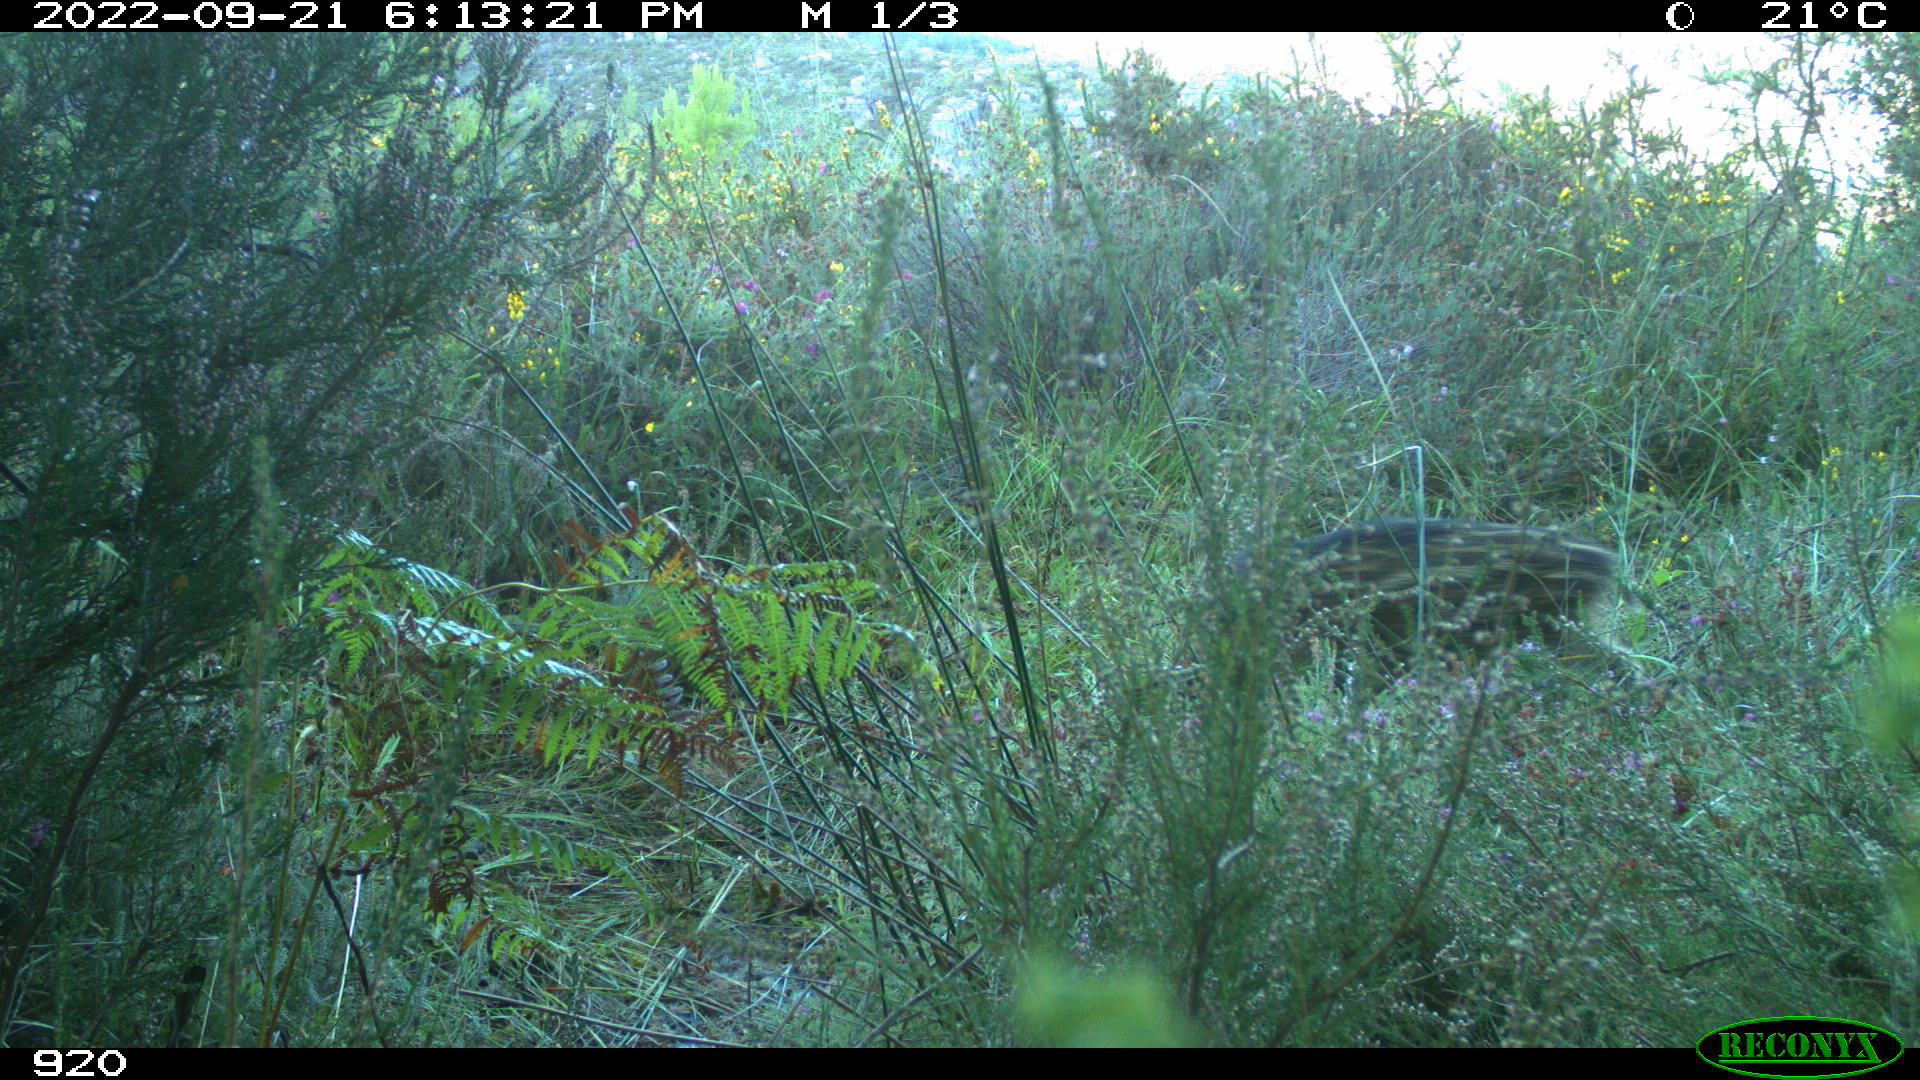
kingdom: Animalia
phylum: Chordata
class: Mammalia
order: Artiodactyla
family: Suidae
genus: Sus
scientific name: Sus scrofa
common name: Wild boar
